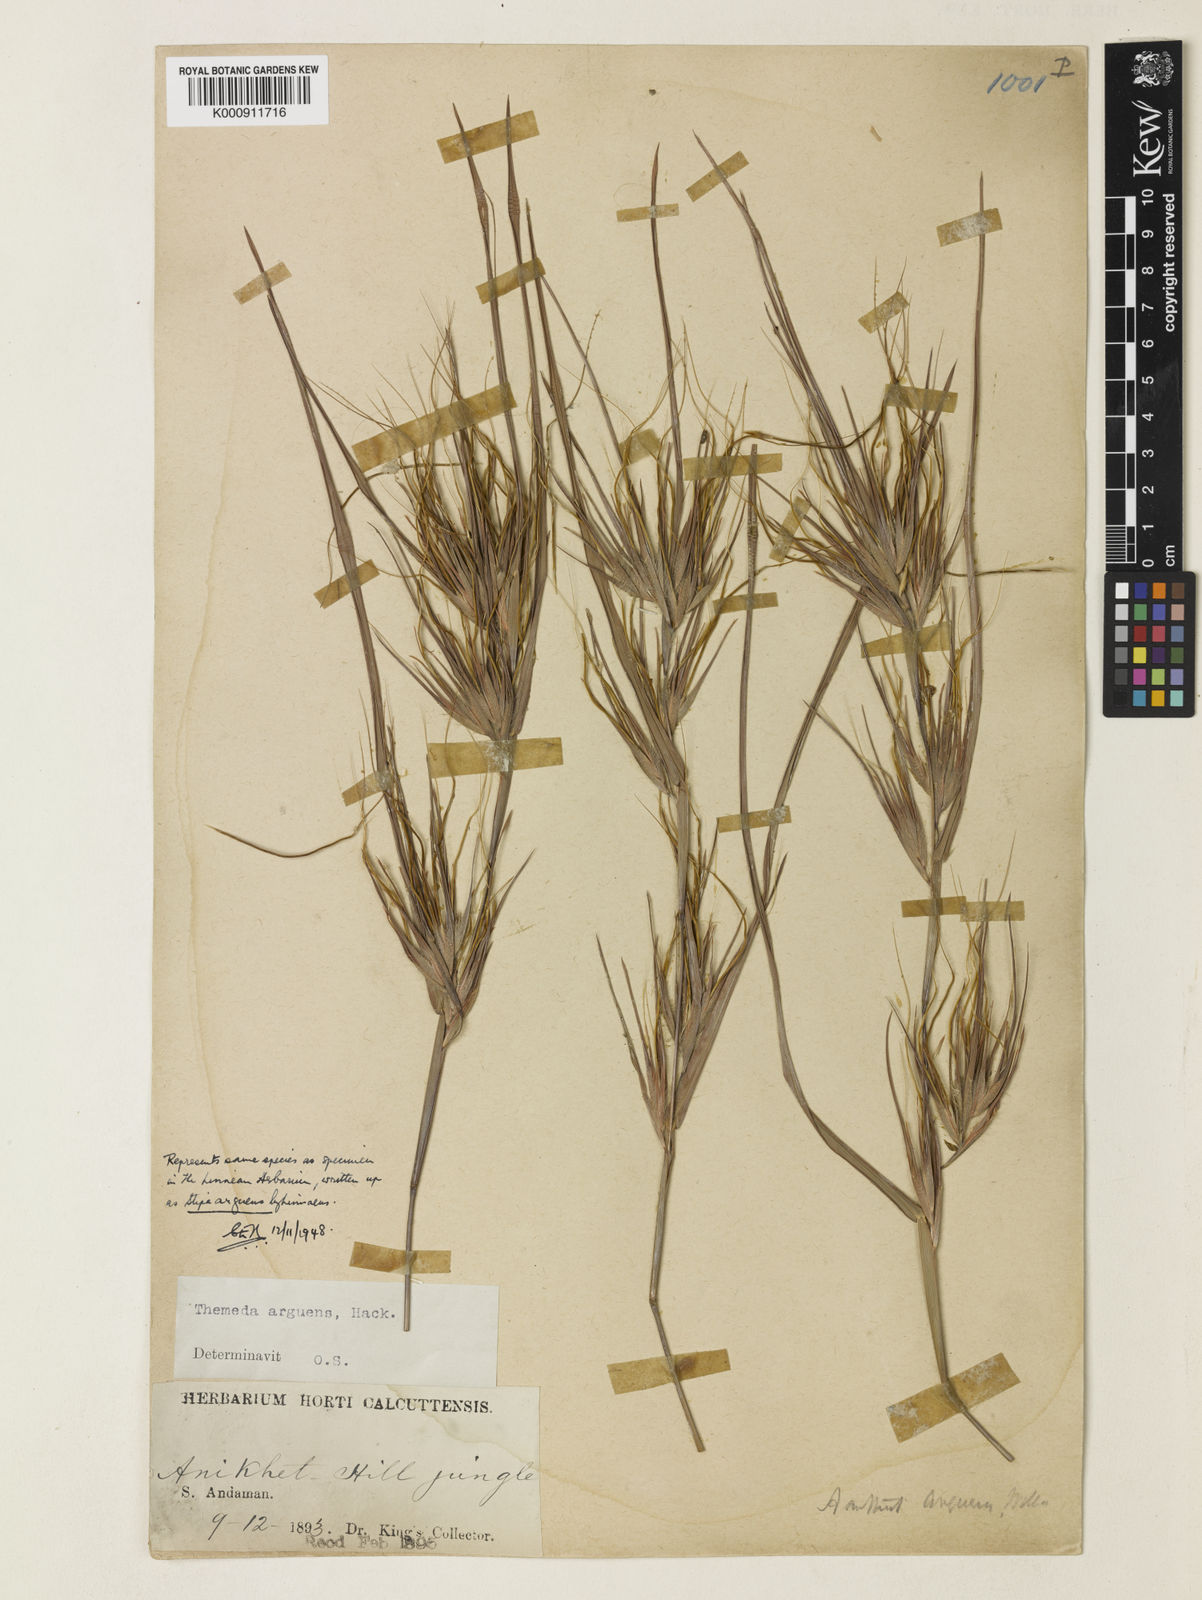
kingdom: Plantae
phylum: Tracheophyta
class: Liliopsida
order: Poales
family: Poaceae
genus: Themeda
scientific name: Themeda arguens
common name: Christmas grass
